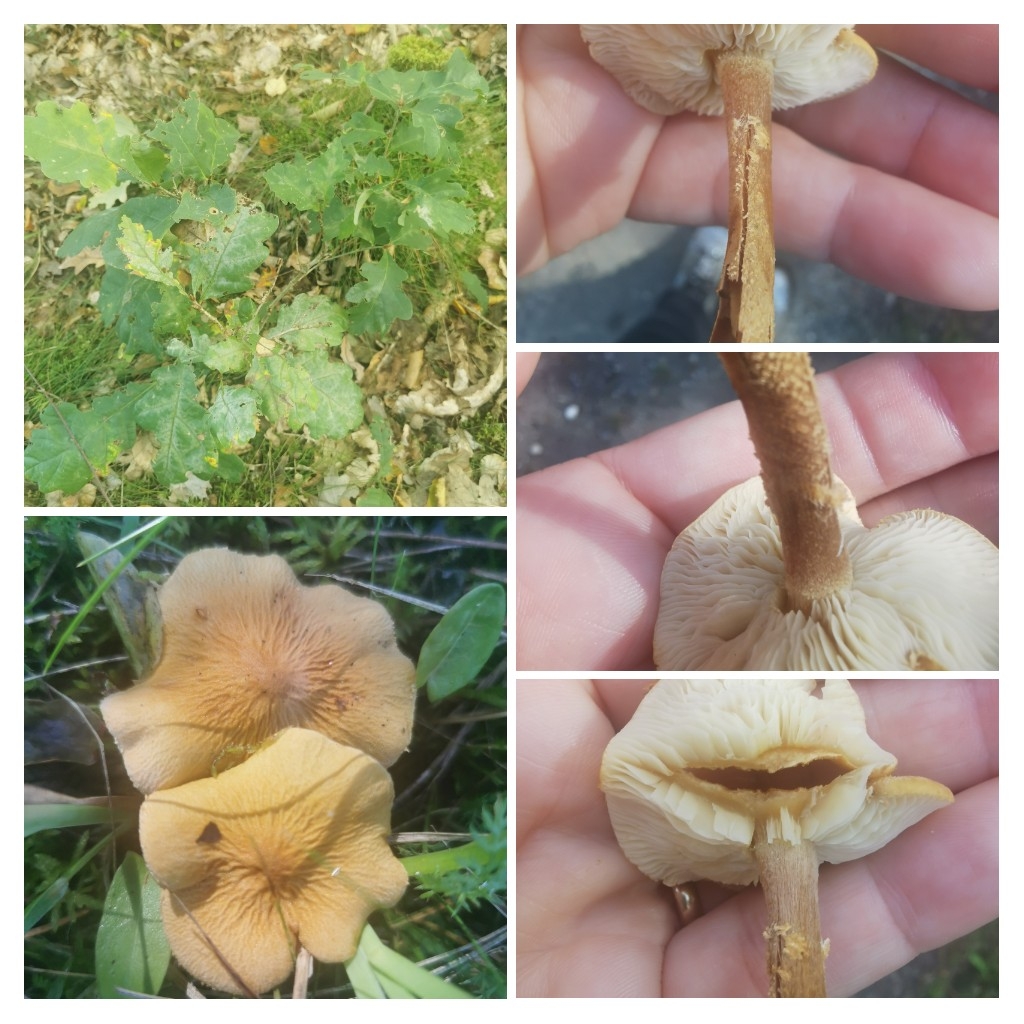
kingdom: Fungi
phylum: Basidiomycota
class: Agaricomycetes
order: Agaricales
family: Tricholomataceae
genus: Cystoderma
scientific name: Cystoderma amianthinum
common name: okkergul grynhat
